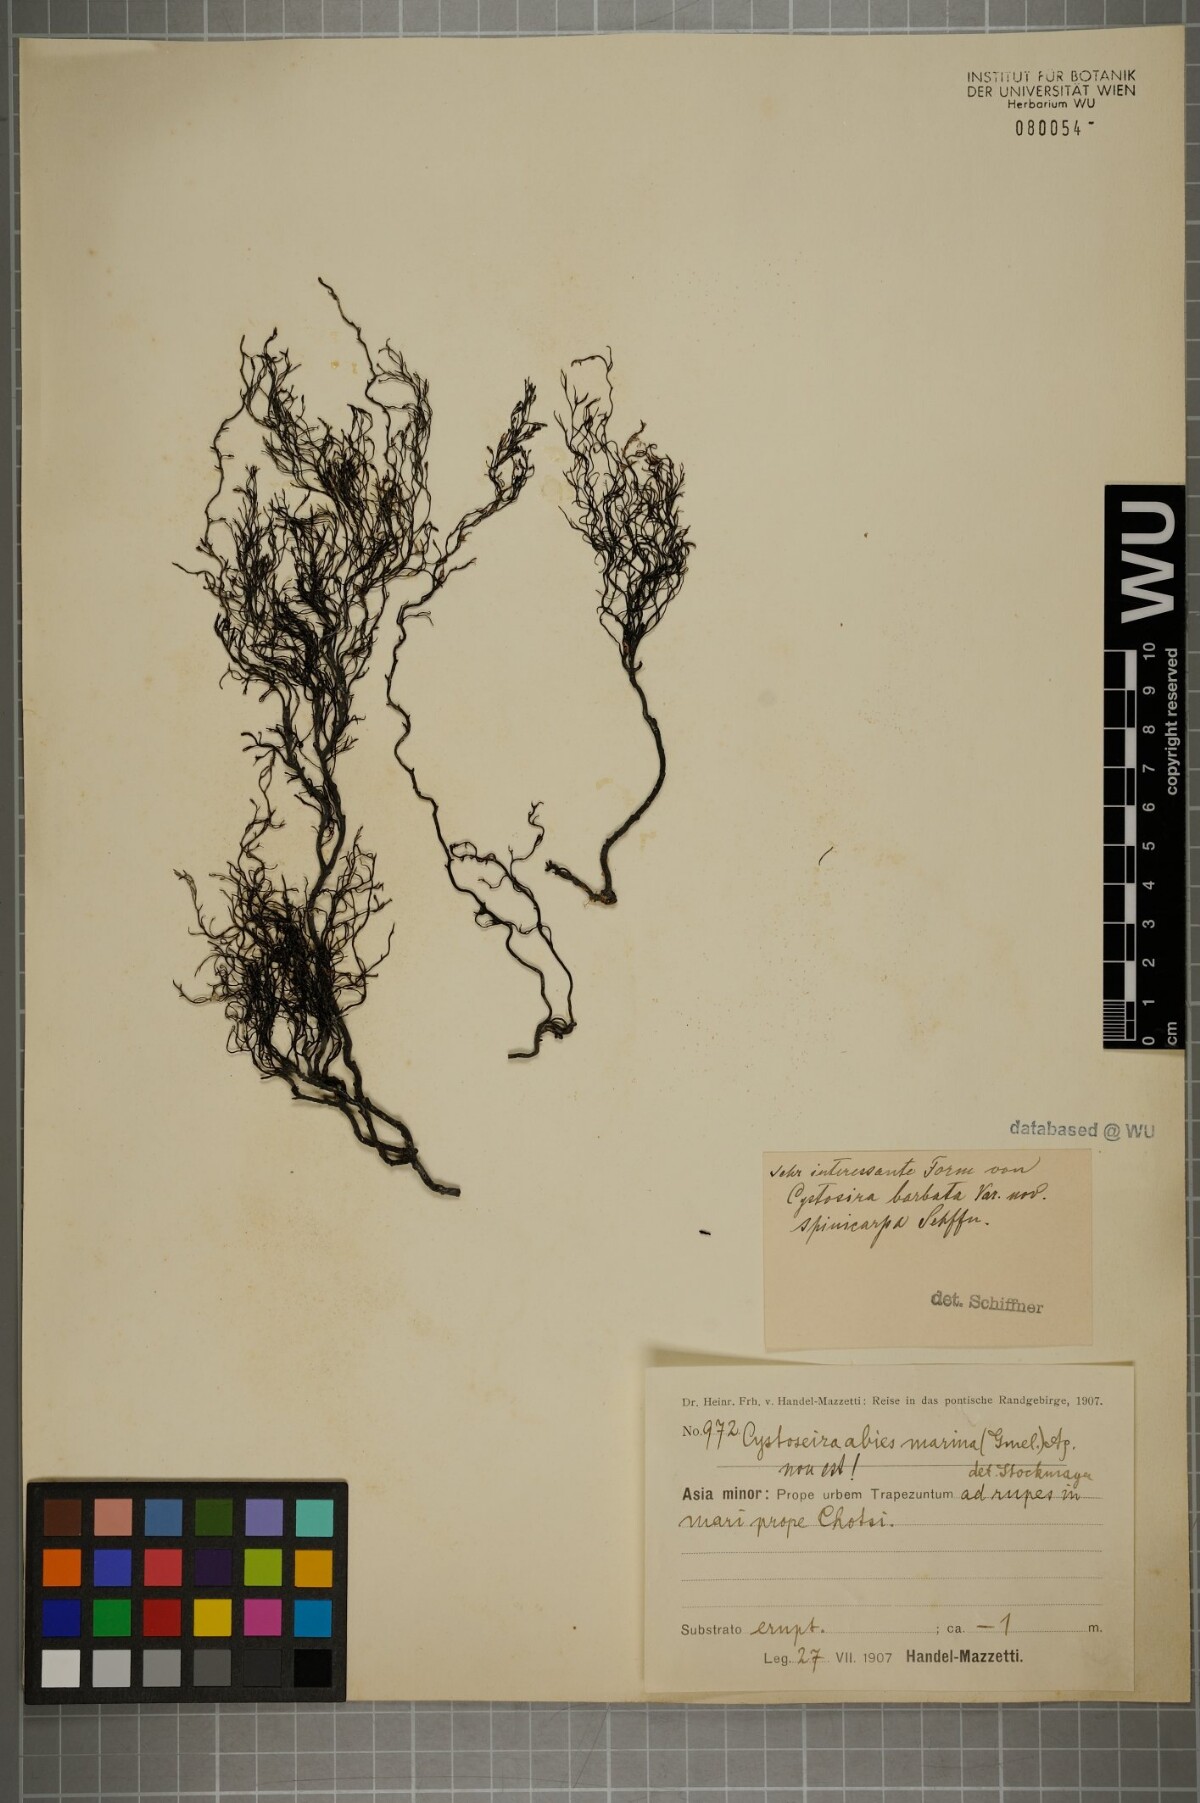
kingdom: Chromista
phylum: Ochrophyta
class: Phaeophyceae
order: Fucales
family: Sargassaceae
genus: Cystoseira
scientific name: Cystoseira Gongolaria barbata
